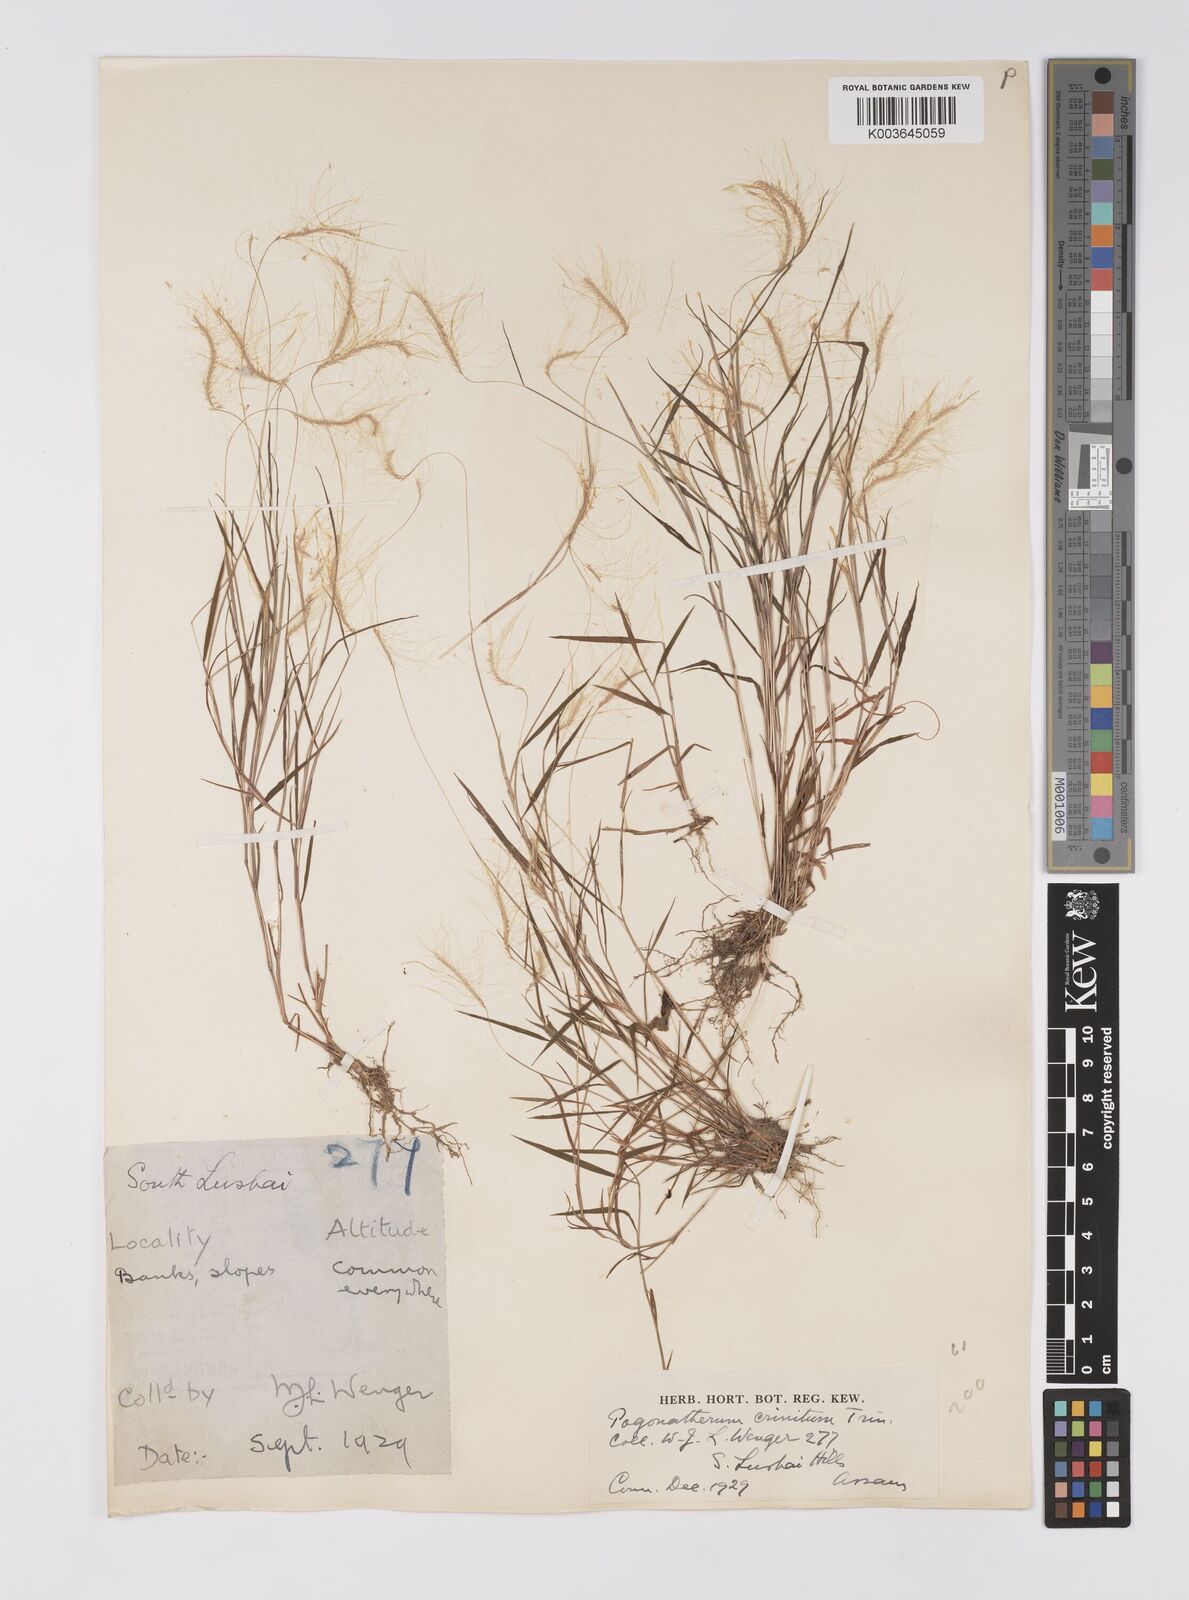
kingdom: Plantae
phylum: Tracheophyta
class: Liliopsida
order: Poales
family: Poaceae
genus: Pogonatherum
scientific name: Pogonatherum crinitum
